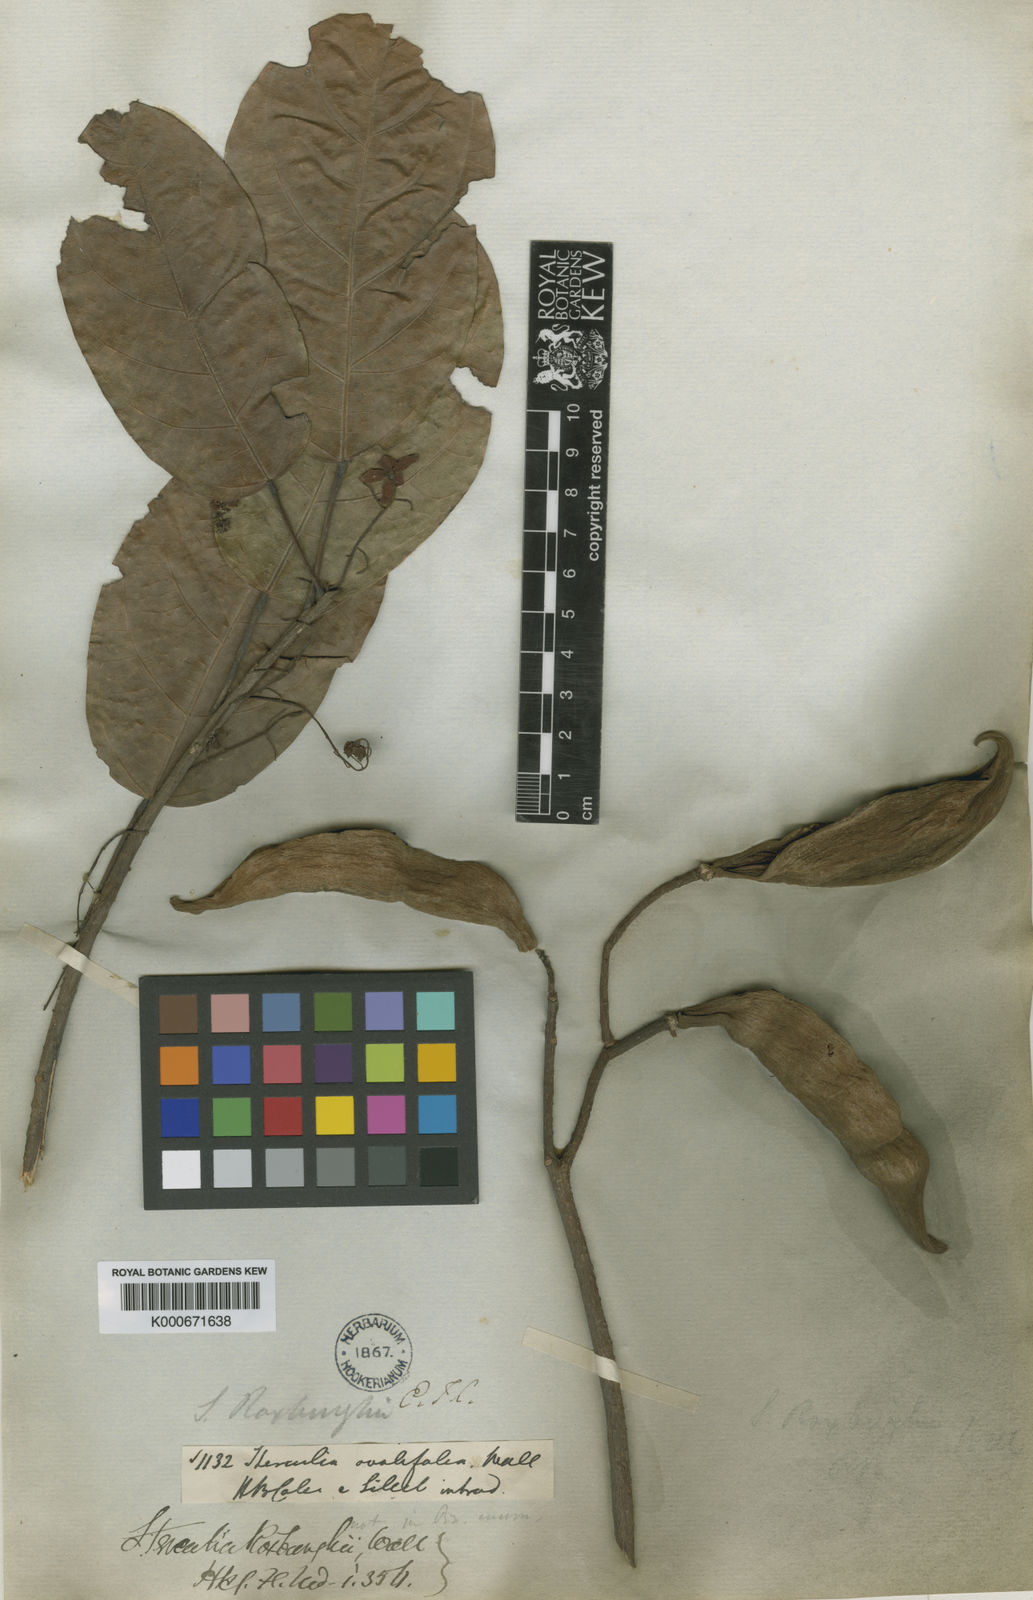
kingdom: Plantae
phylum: Tracheophyta
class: Magnoliopsida
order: Malvales
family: Malvaceae
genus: Sterculia
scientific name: Sterculia lanceifolia
